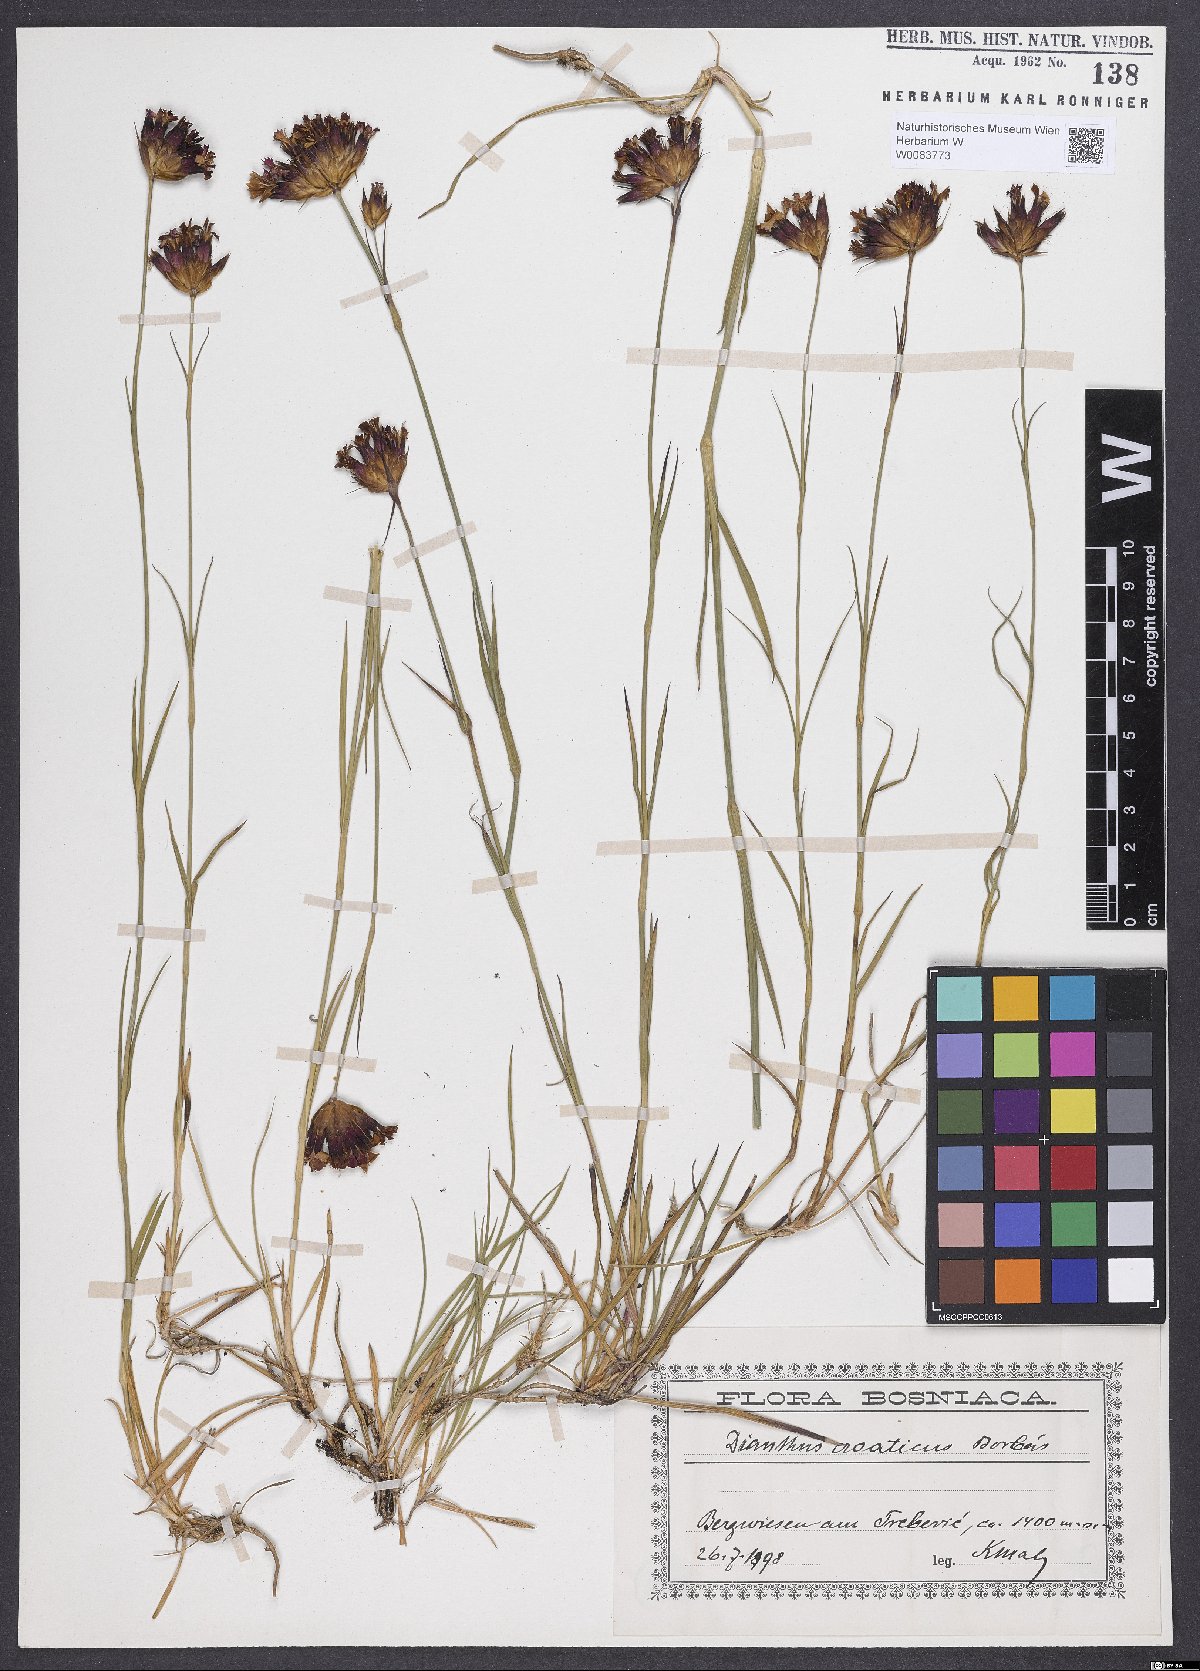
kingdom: Plantae
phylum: Tracheophyta
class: Magnoliopsida
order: Caryophyllales
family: Caryophyllaceae
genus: Dianthus
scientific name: Dianthus giganteus
